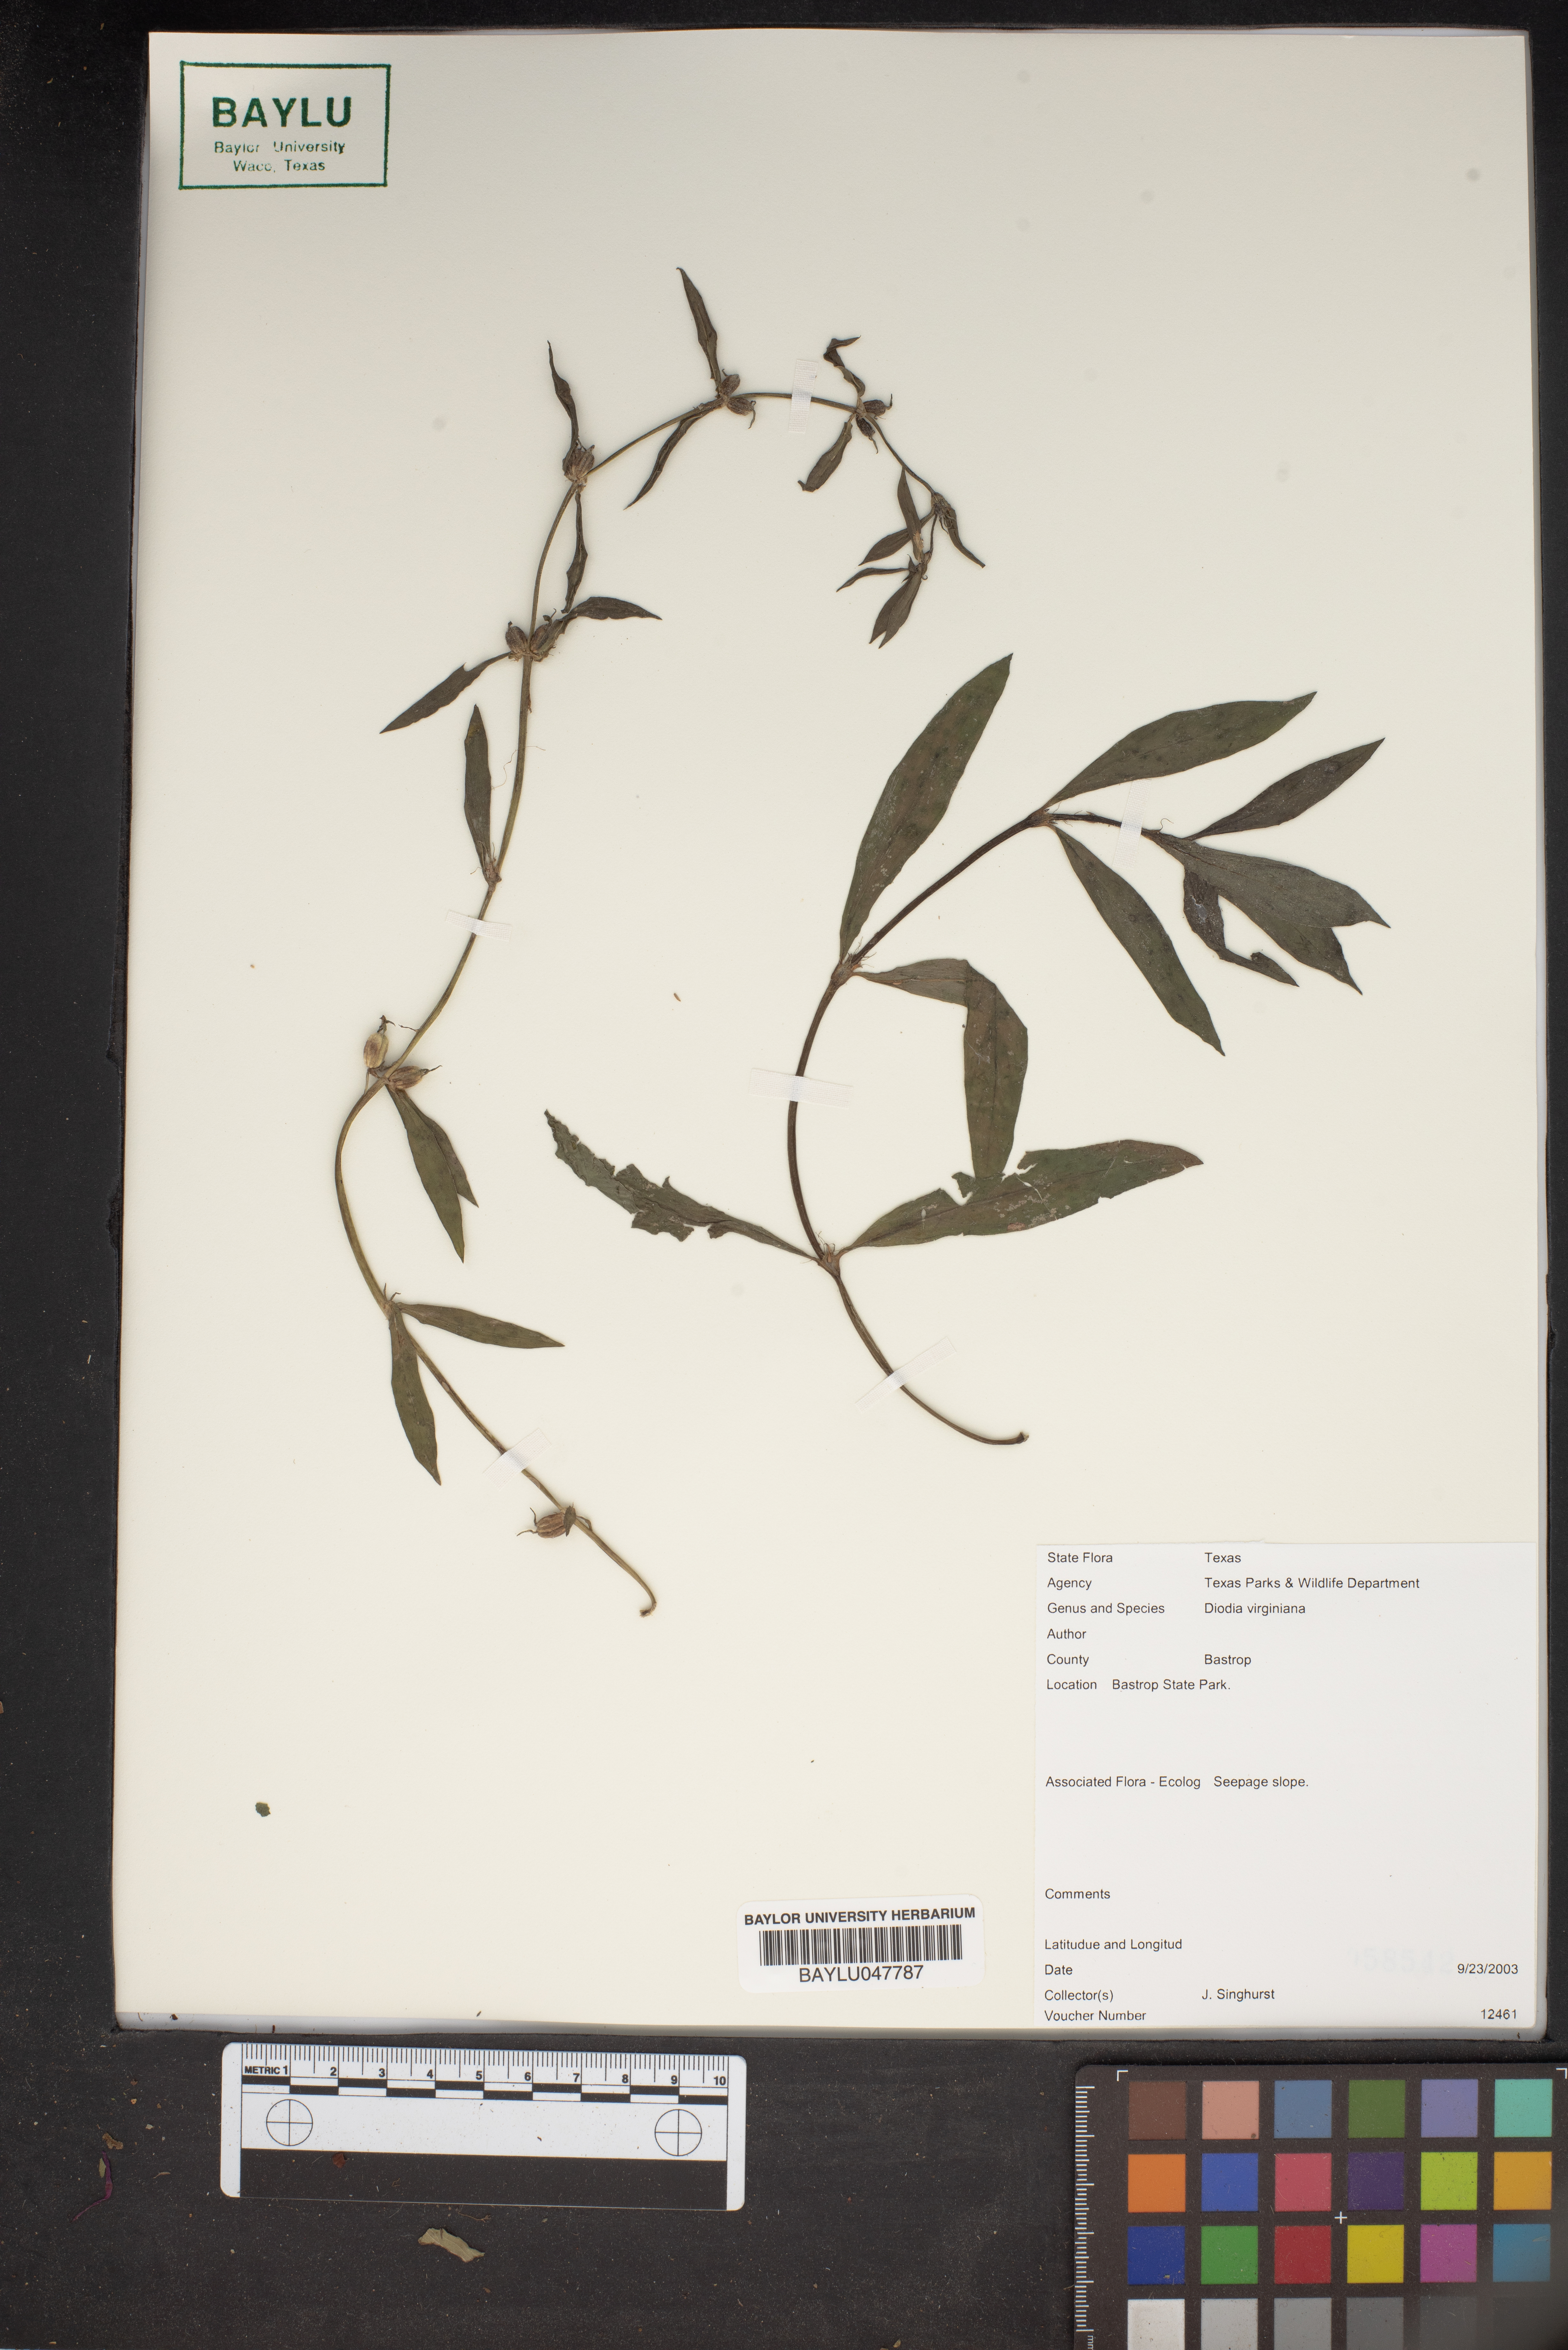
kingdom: Plantae
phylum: Tracheophyta
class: Magnoliopsida
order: Gentianales
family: Rubiaceae
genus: Diodia
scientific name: Diodia virginiana
